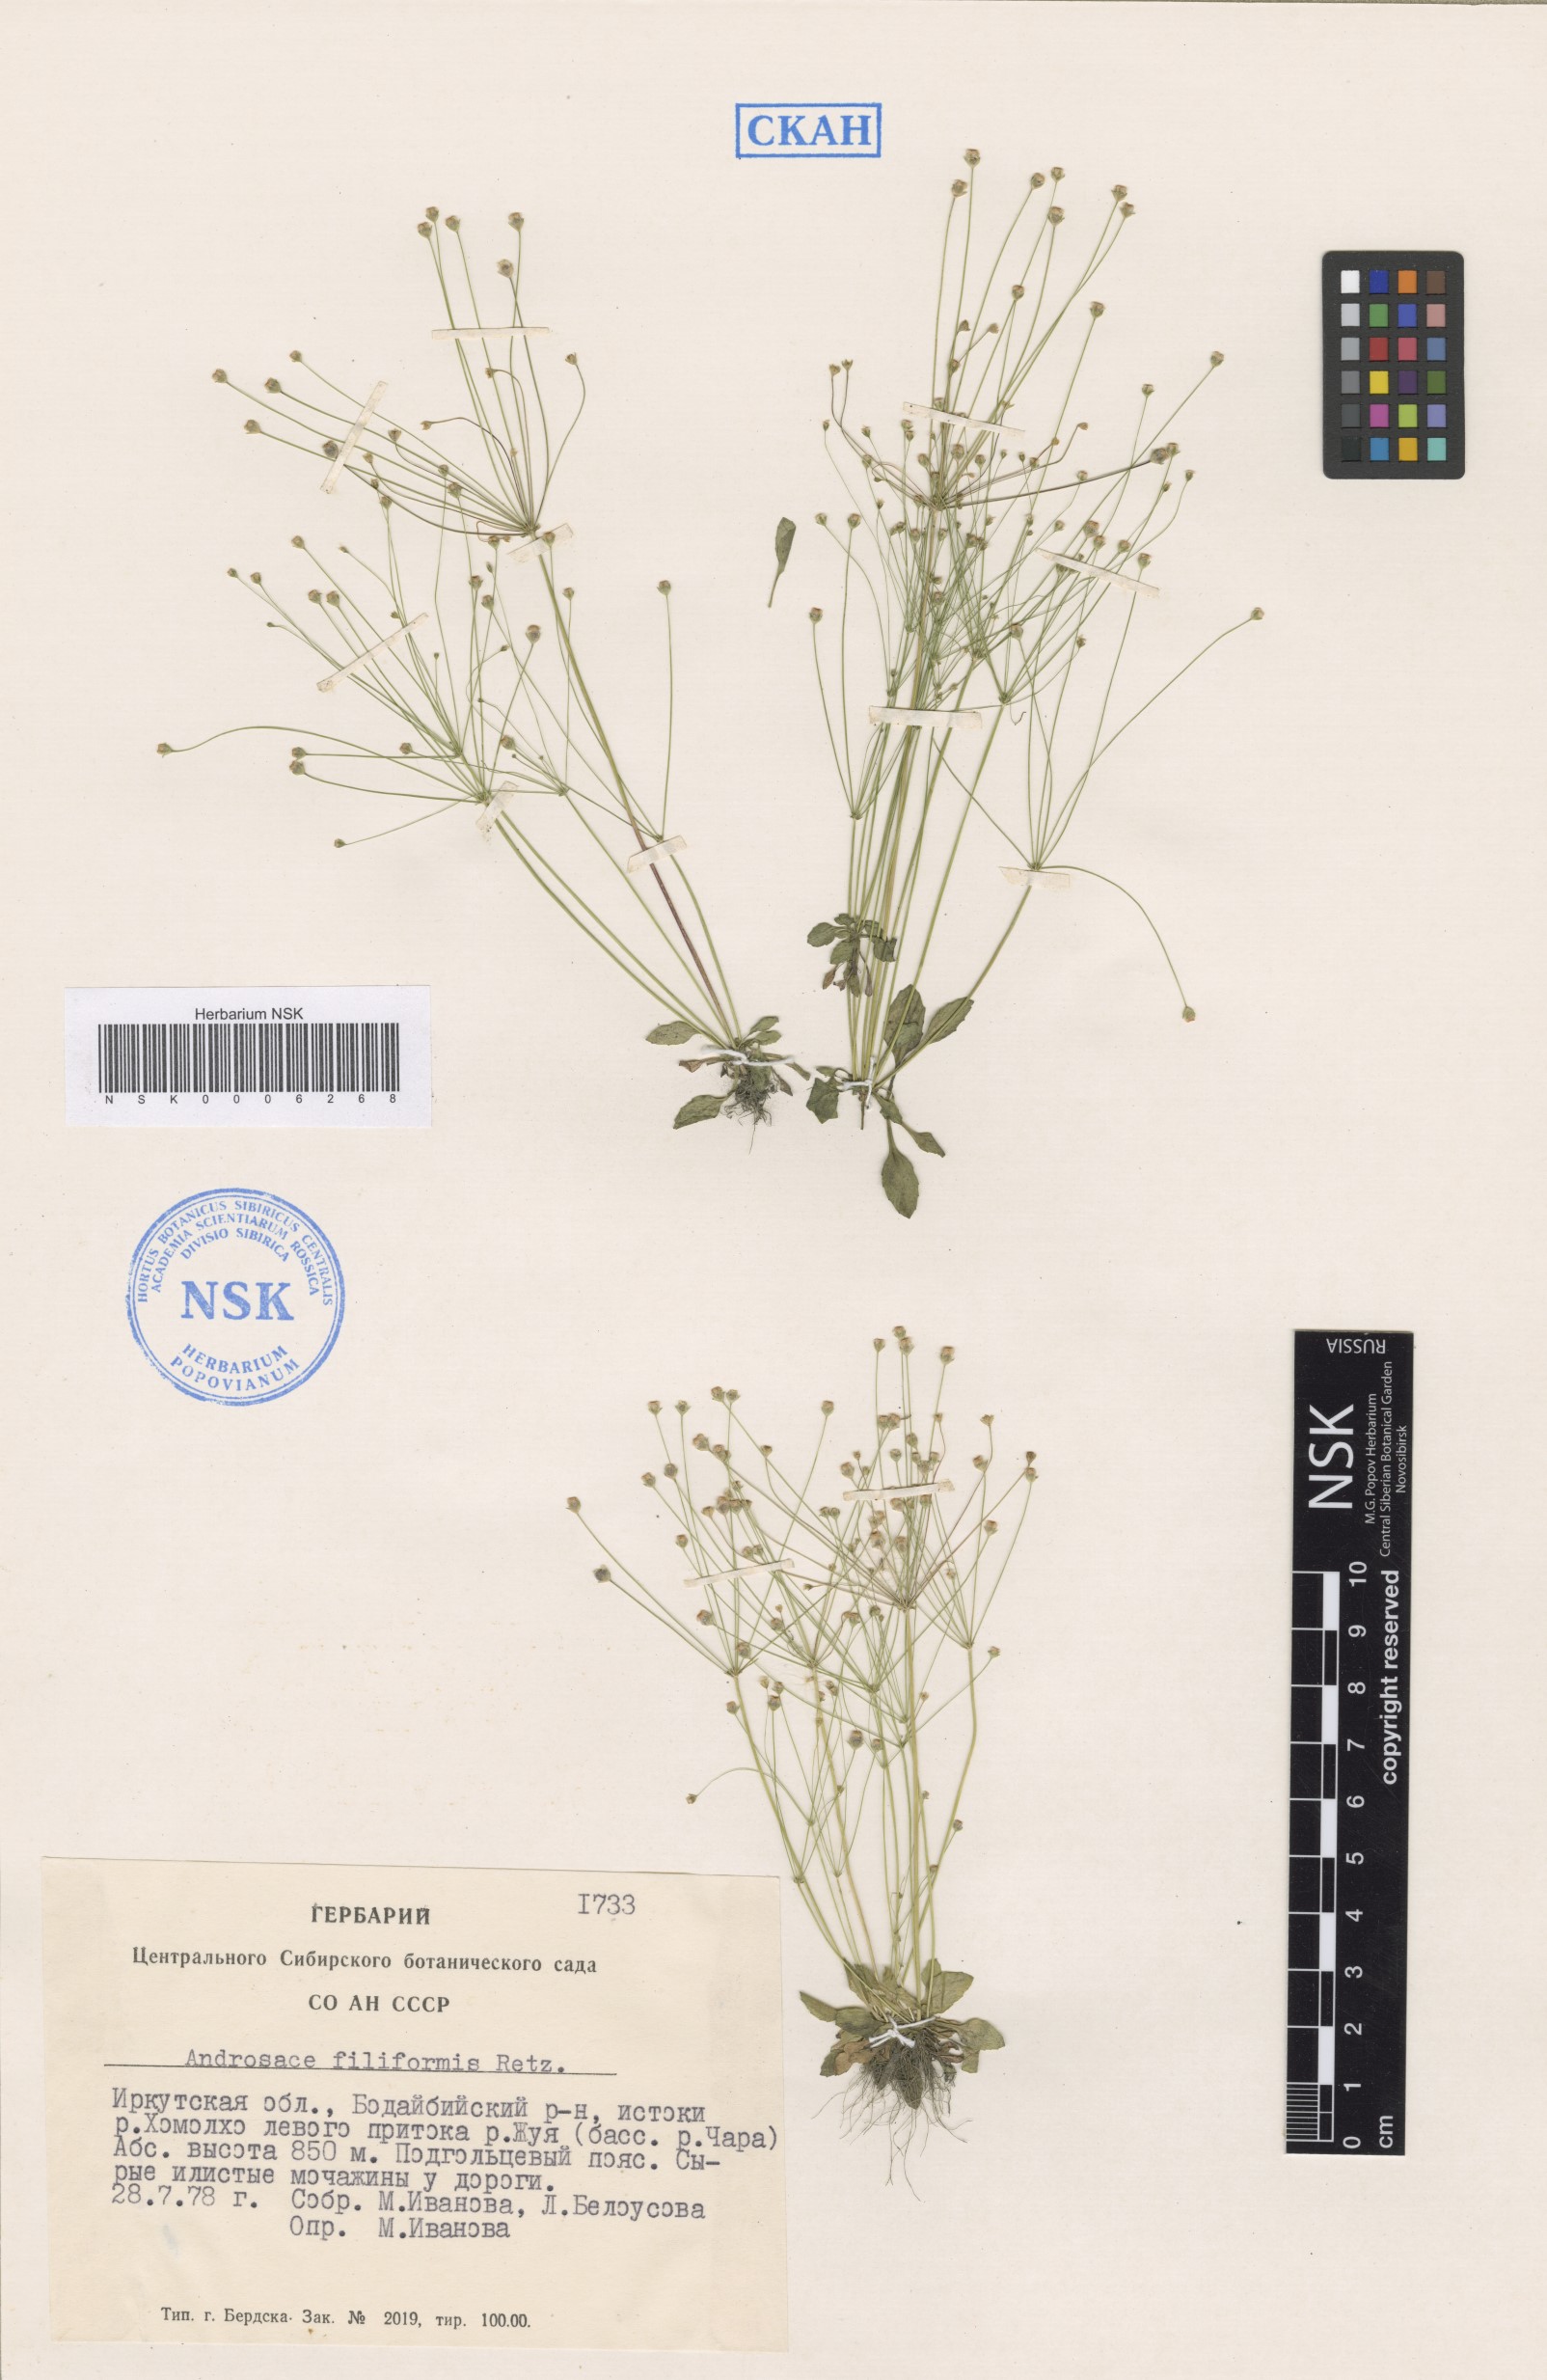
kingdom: Plantae
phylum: Tracheophyta
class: Magnoliopsida
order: Ericales
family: Primulaceae
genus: Androsace
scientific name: Androsace filiformis
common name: Filiform rock jasmine
